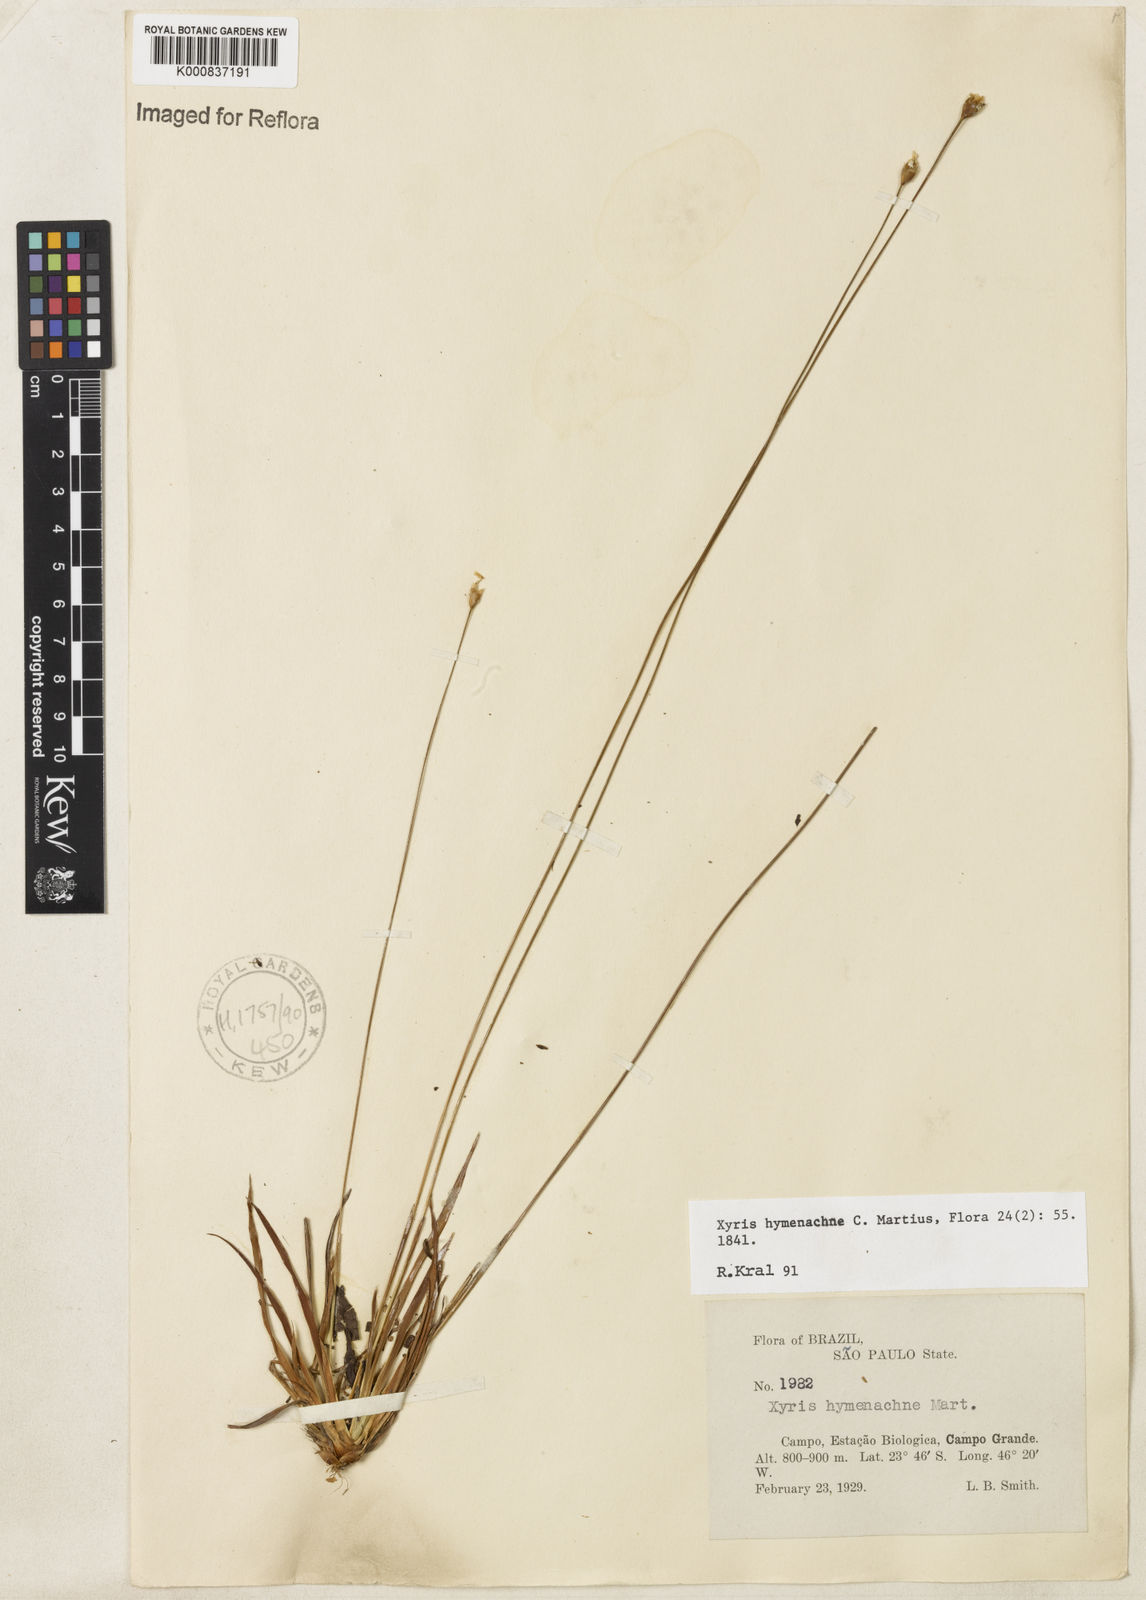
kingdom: Plantae
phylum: Tracheophyta
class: Liliopsida
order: Poales
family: Xyridaceae
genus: Xyris
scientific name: Xyris hymenachne
